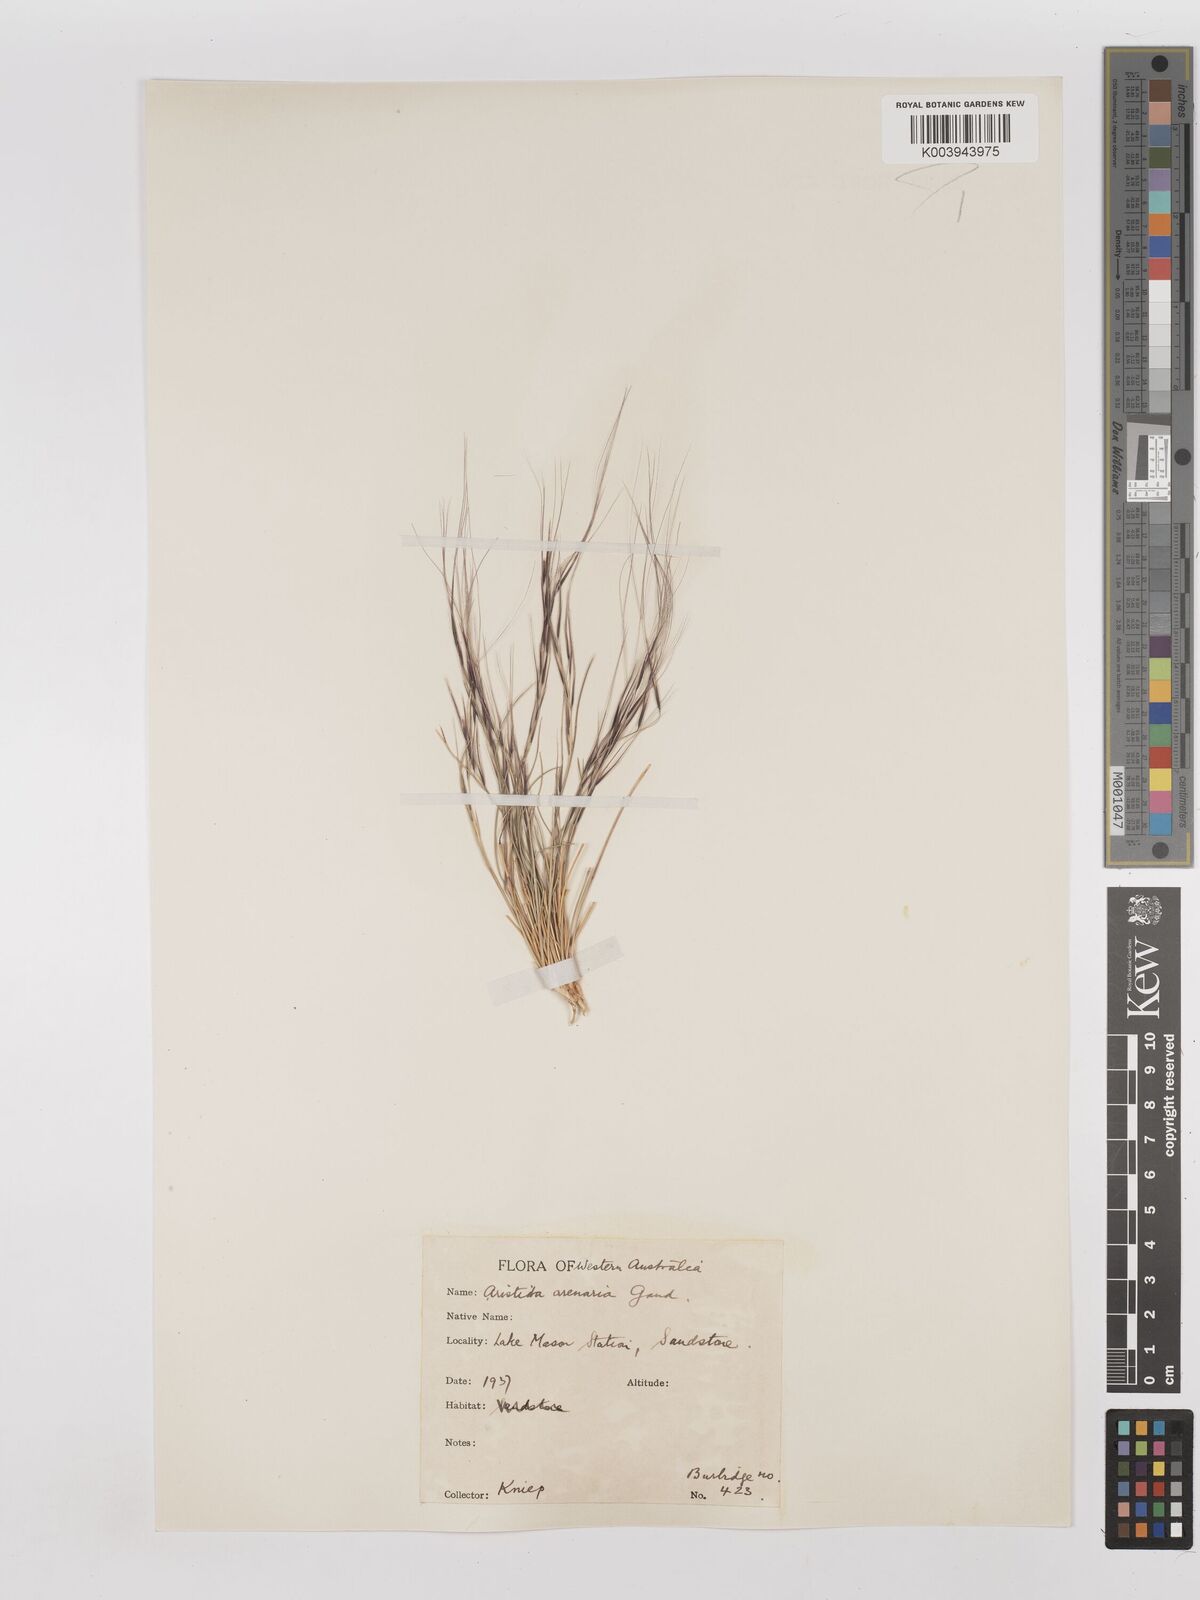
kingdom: Plantae
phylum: Tracheophyta
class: Liliopsida
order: Poales
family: Poaceae
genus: Aristida
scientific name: Aristida contorta
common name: Bunch kerosene grass
